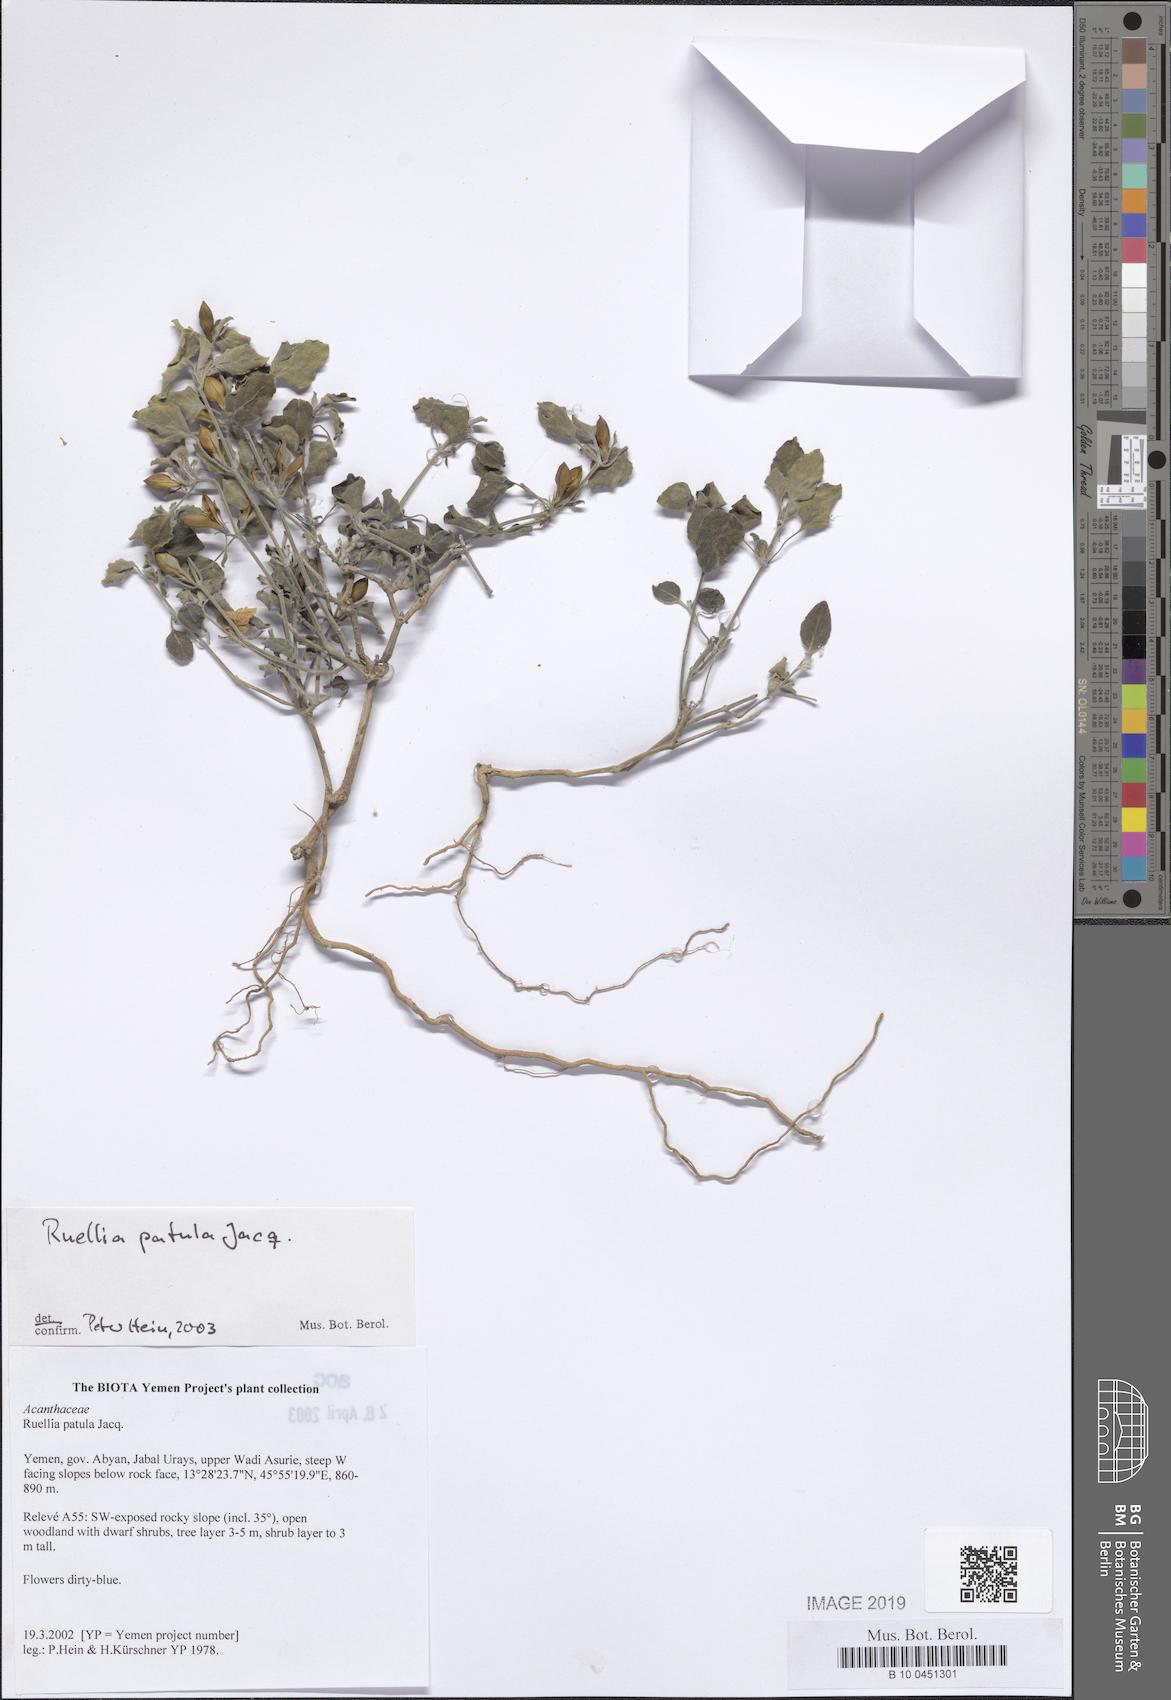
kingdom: Plantae
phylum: Tracheophyta
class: Magnoliopsida
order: Lamiales
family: Acanthaceae
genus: Ruellia
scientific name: Ruellia patula
